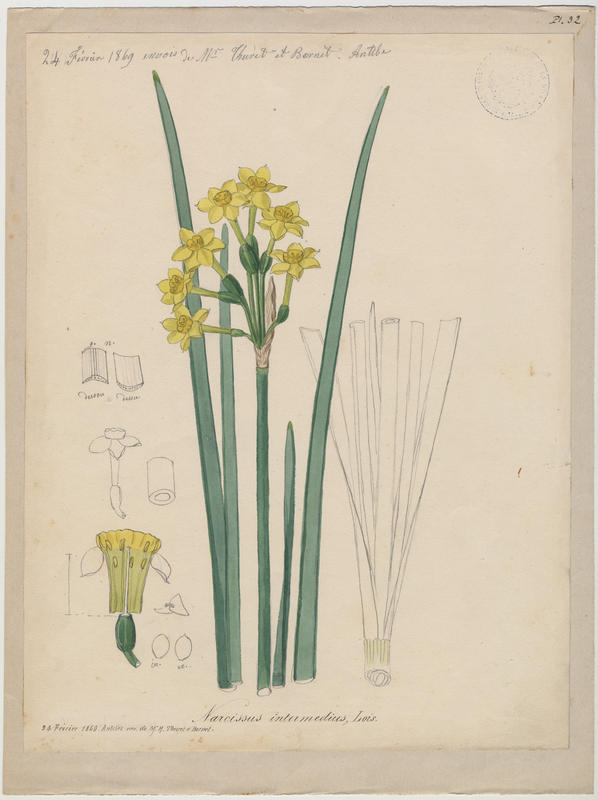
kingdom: Plantae
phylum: Tracheophyta
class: Liliopsida
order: Asparagales
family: Amaryllidaceae
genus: Narcissus
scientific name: Narcissus compressus
